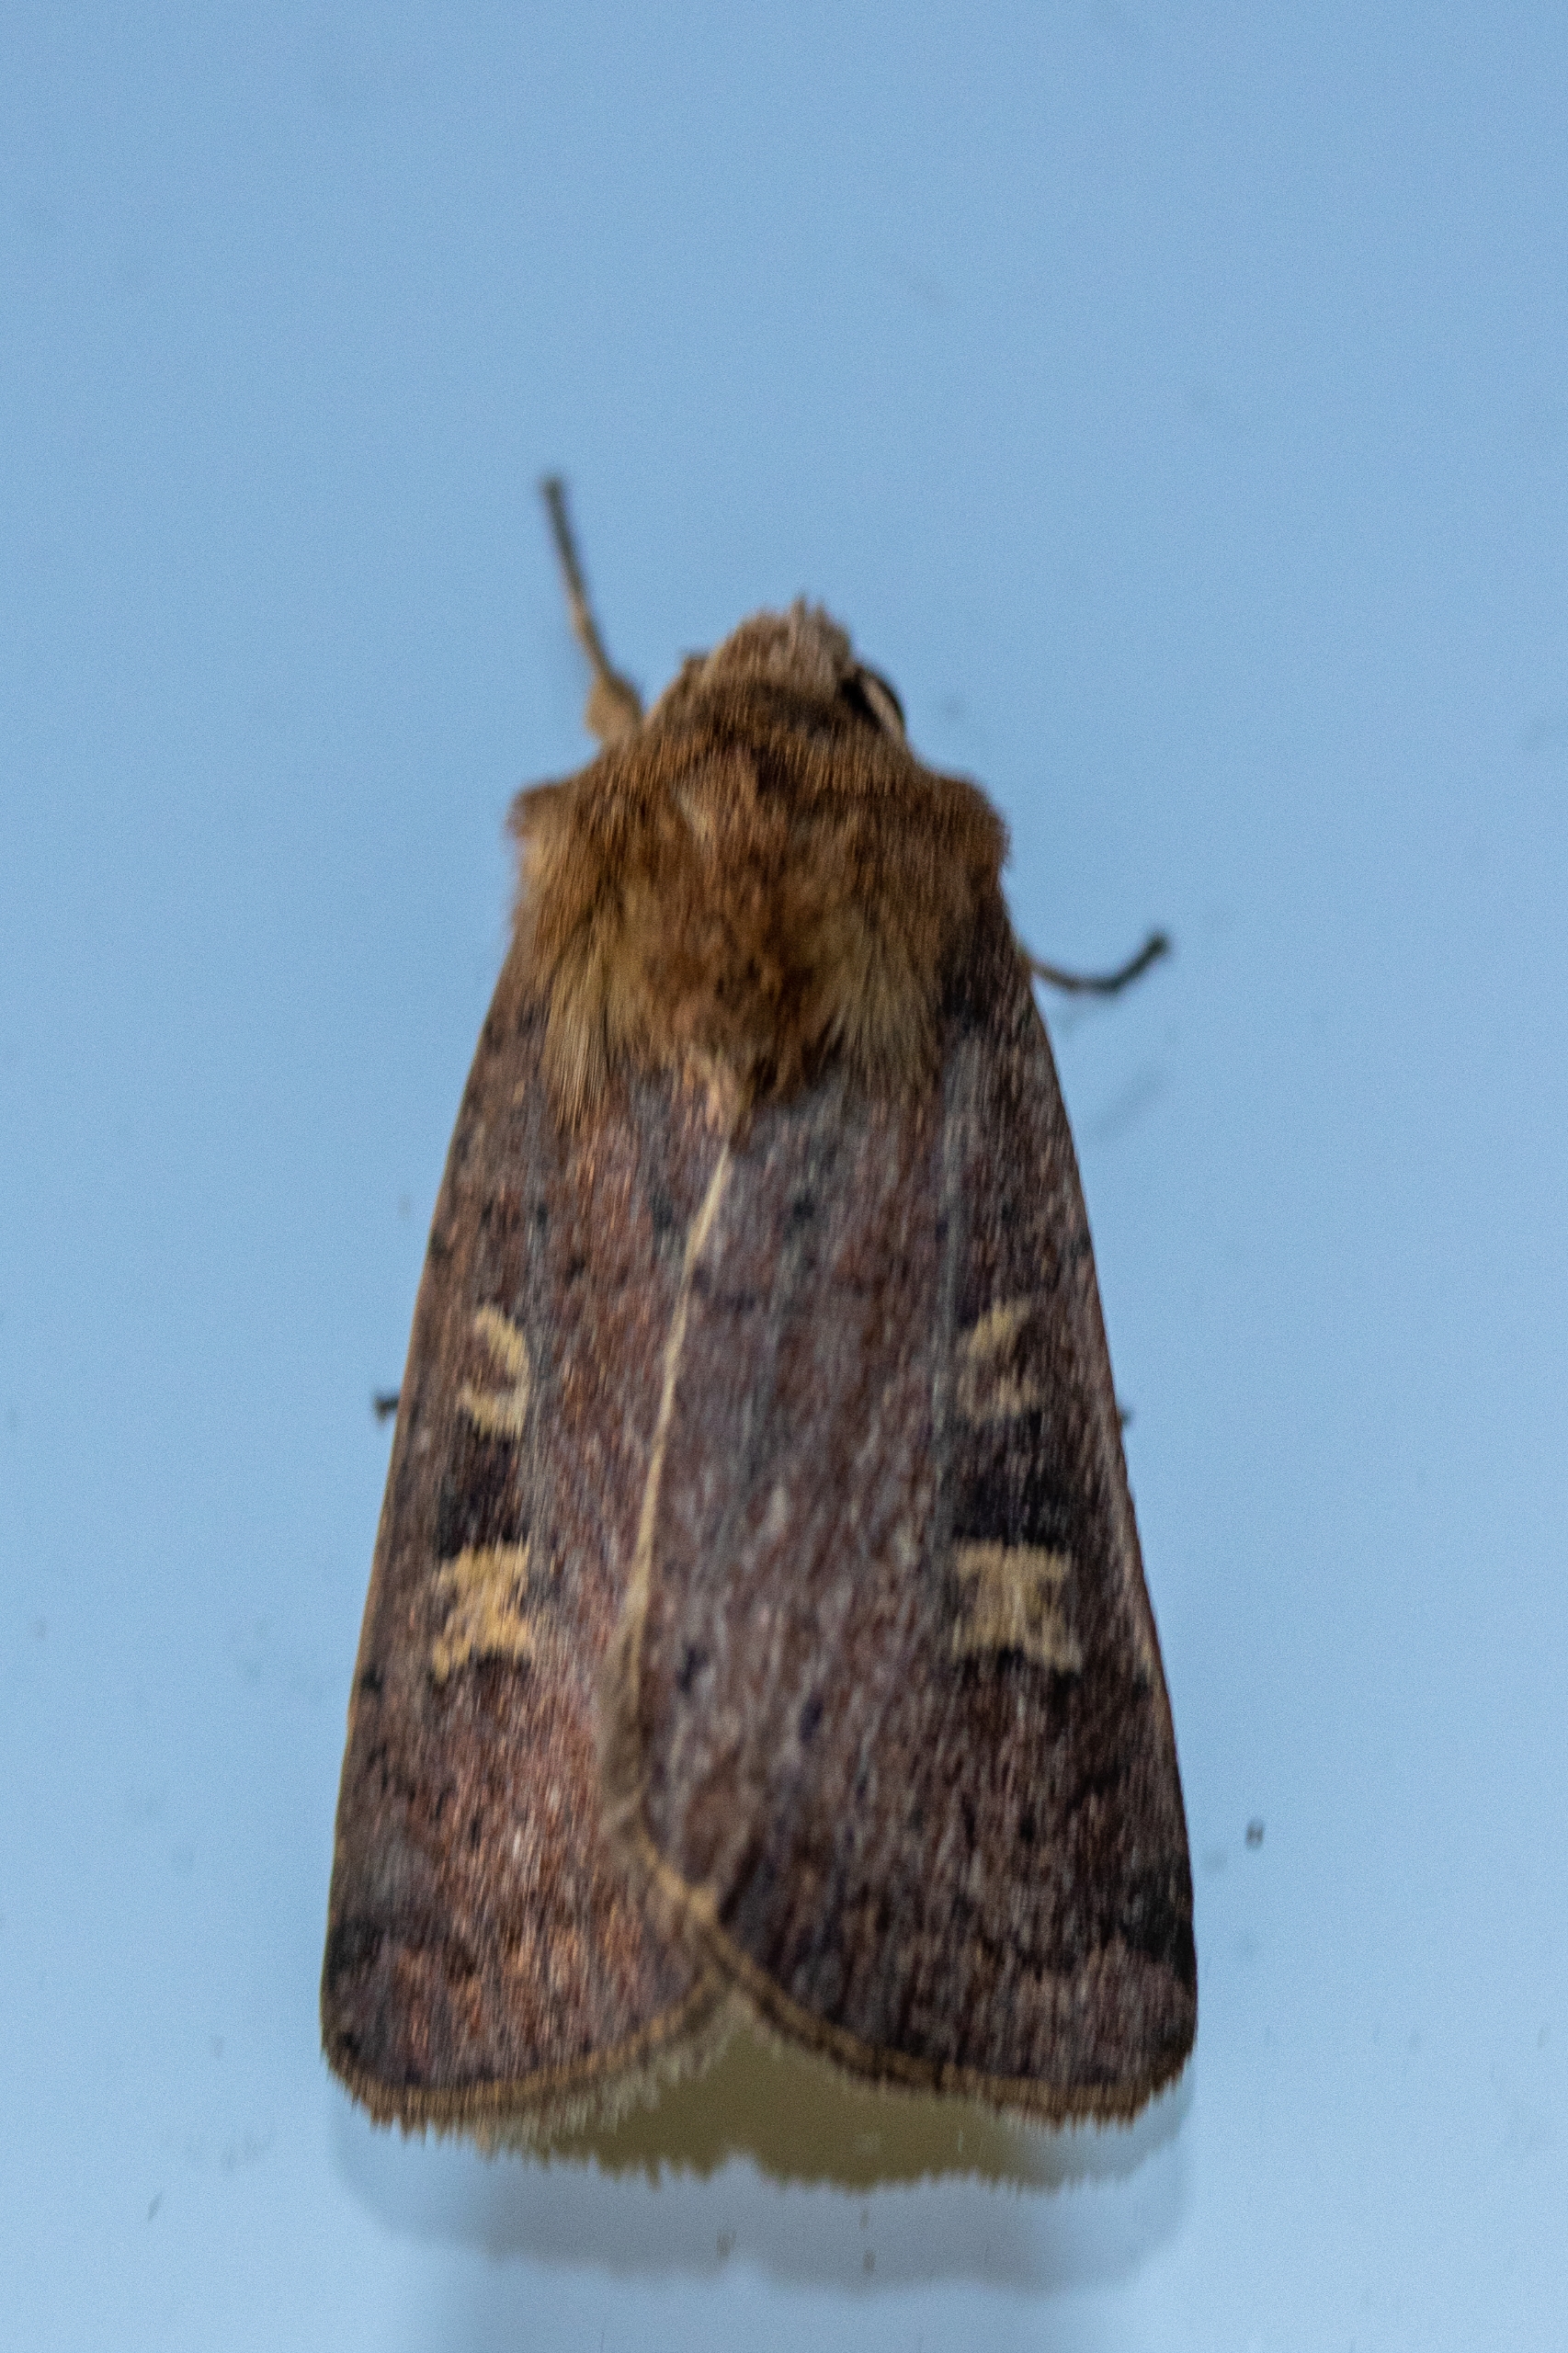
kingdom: Animalia
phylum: Arthropoda
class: Insecta
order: Lepidoptera
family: Noctuidae
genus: Xestia
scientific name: Xestia xanthographa
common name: Gulmærket glansugle
